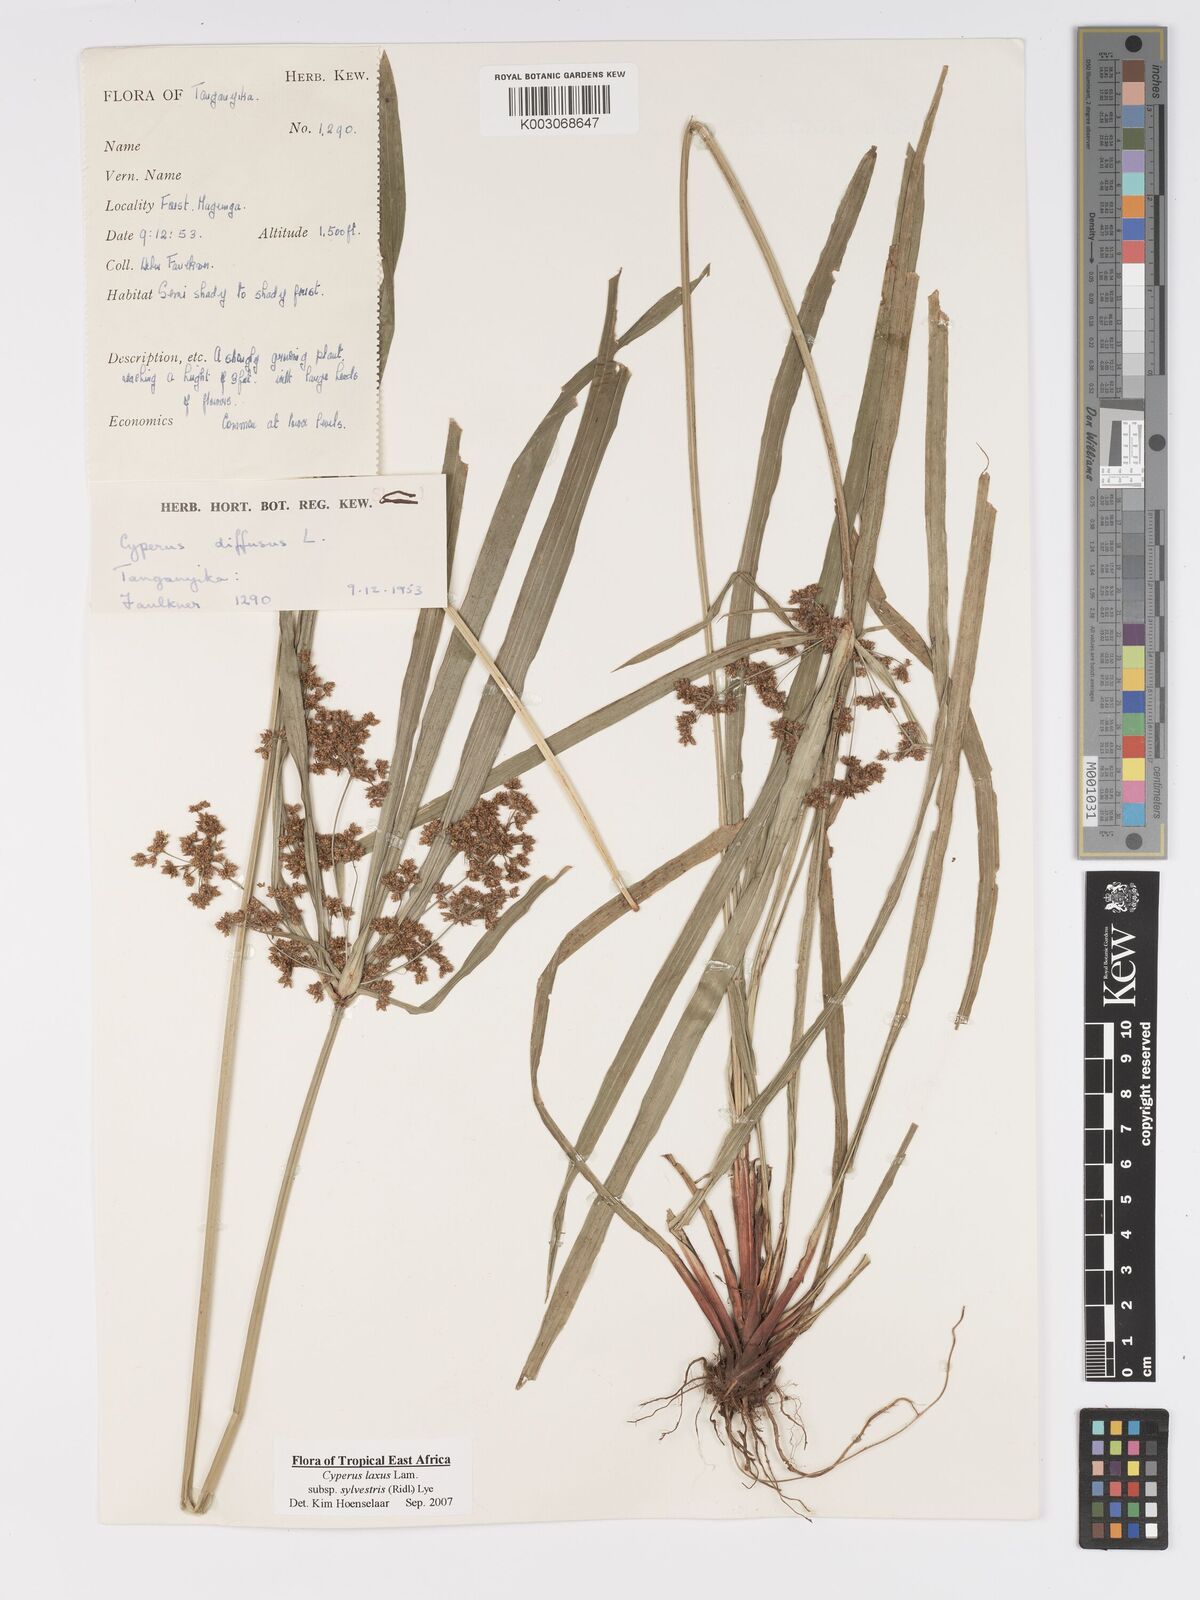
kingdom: Plantae
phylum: Tracheophyta
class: Liliopsida
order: Poales
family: Cyperaceae
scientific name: Cyperaceae
